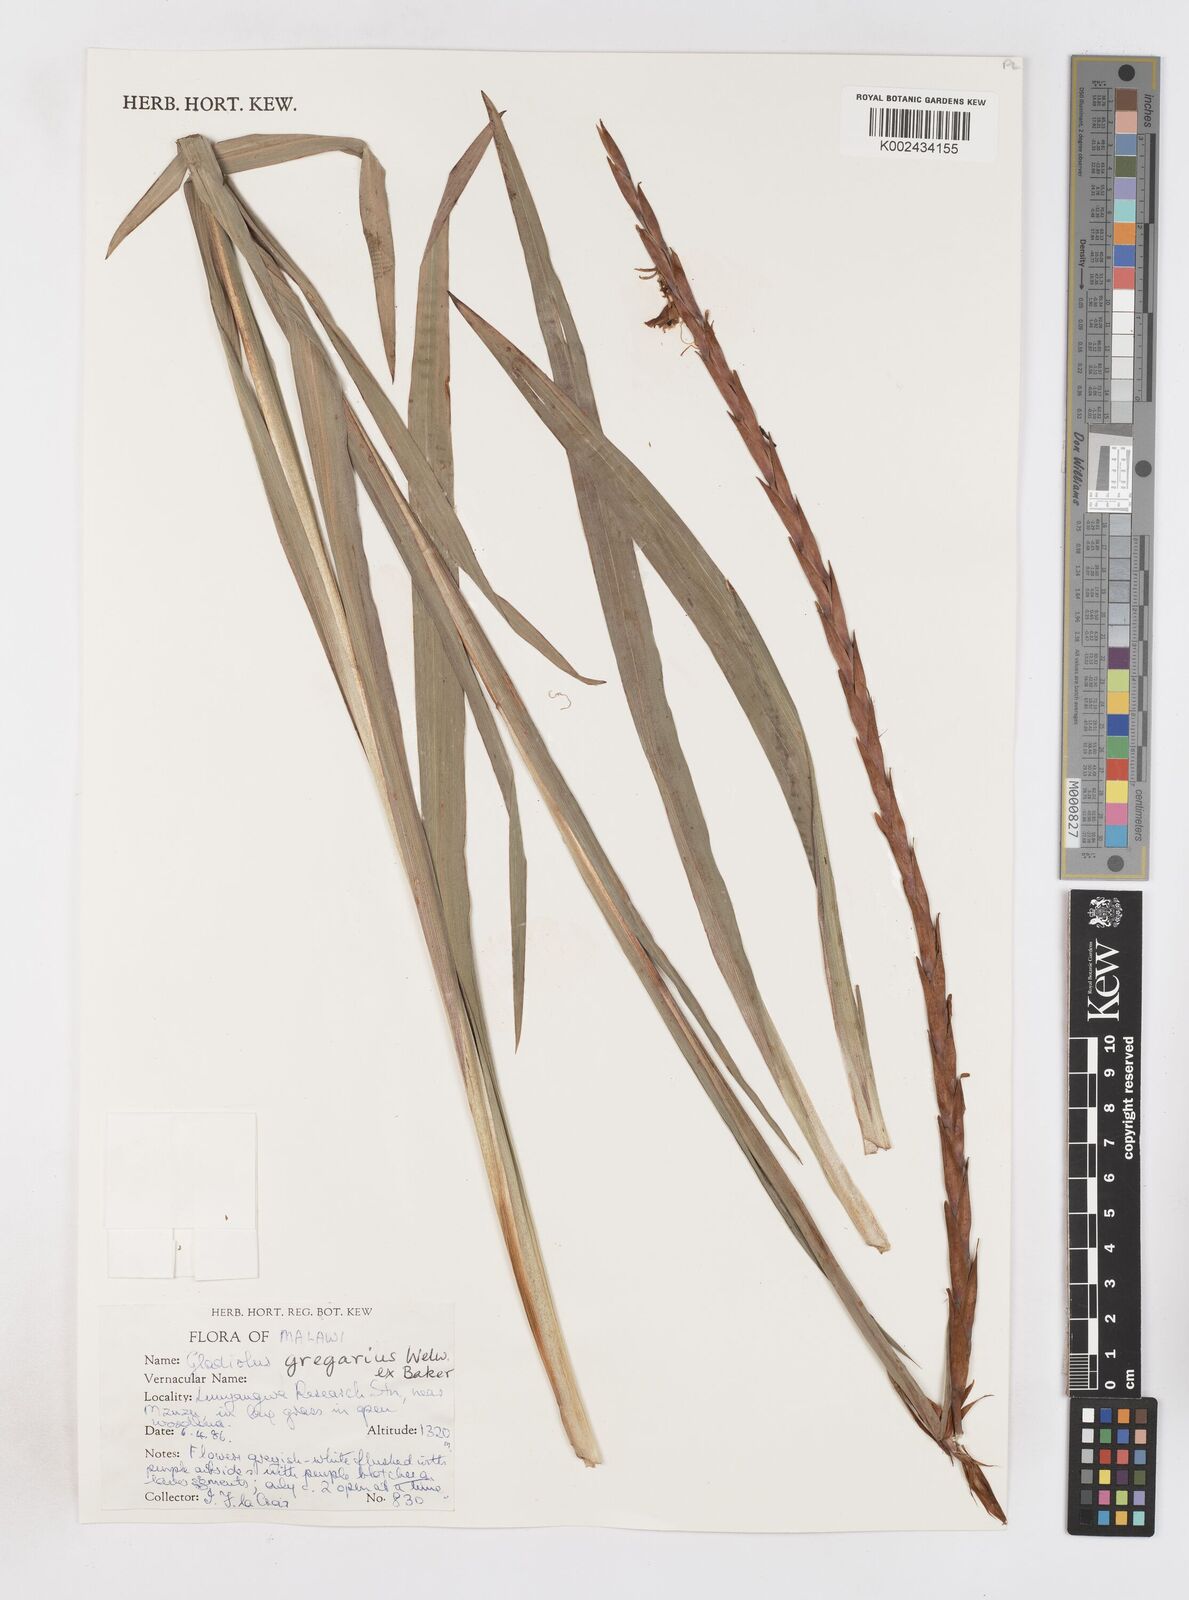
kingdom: Plantae
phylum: Tracheophyta
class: Liliopsida
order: Asparagales
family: Iridaceae
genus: Gladiolus
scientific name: Gladiolus gregarius
